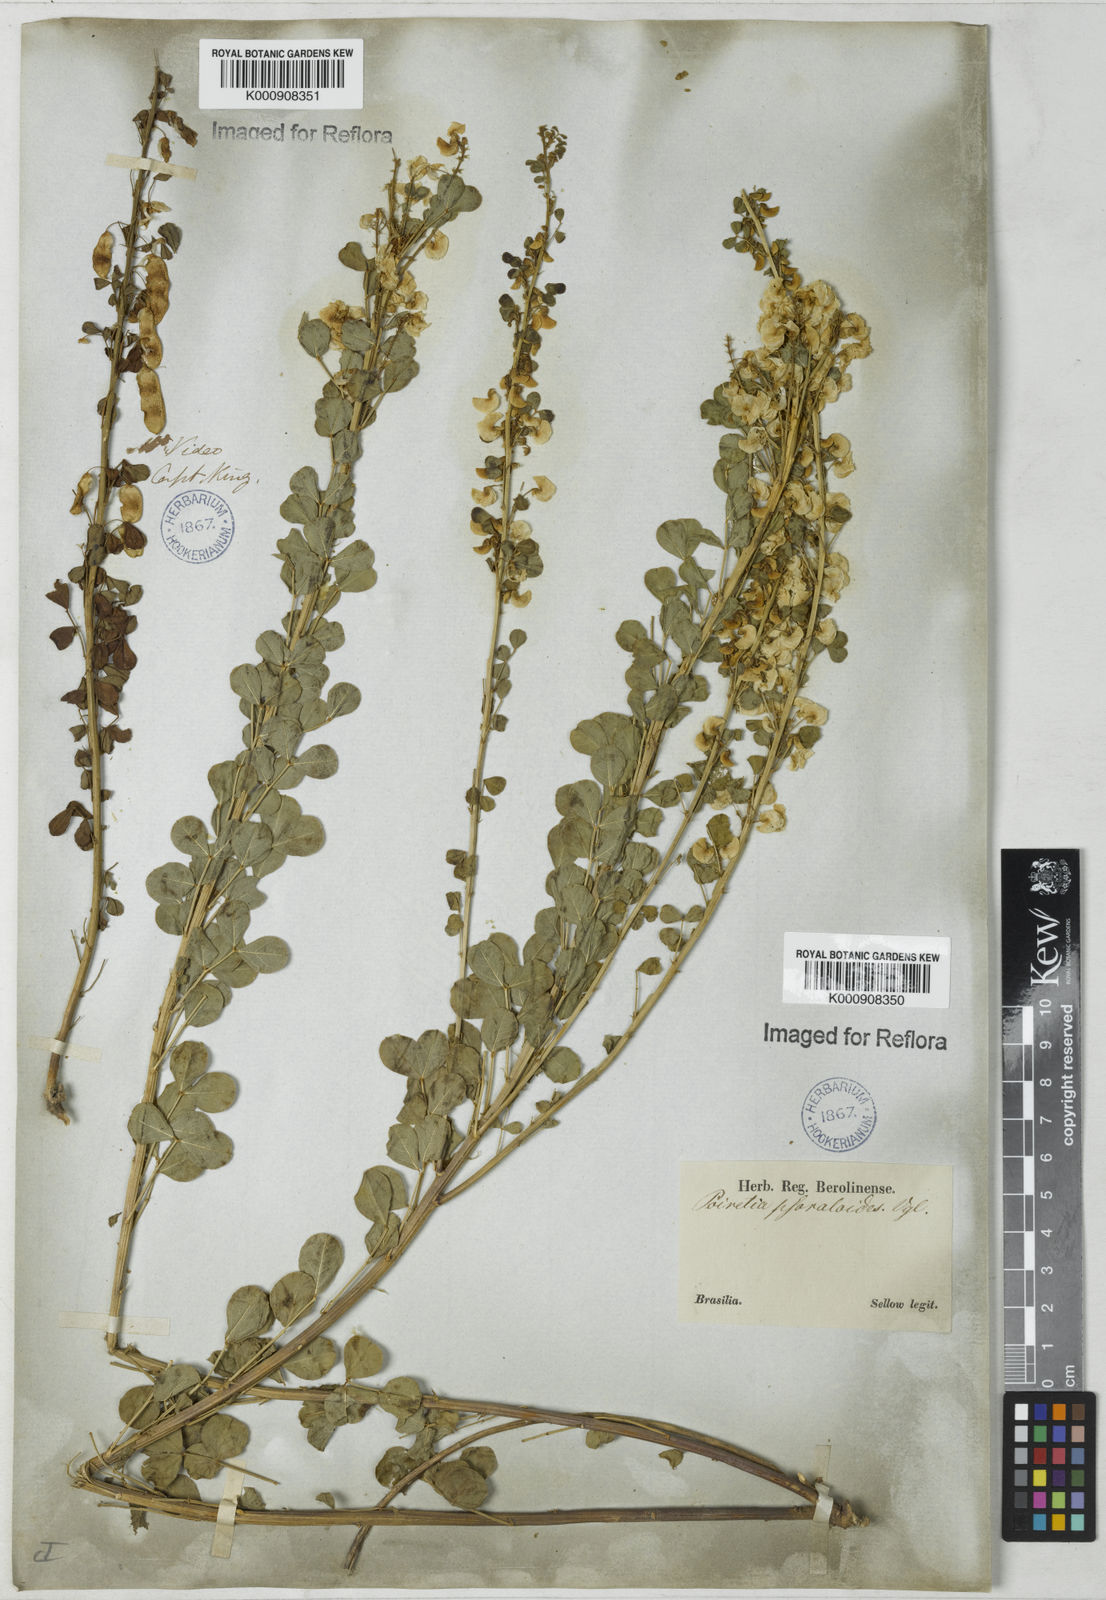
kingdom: Plantae
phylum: Tracheophyta
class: Magnoliopsida
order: Fabales
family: Fabaceae
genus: Poiretia
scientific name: Poiretia
